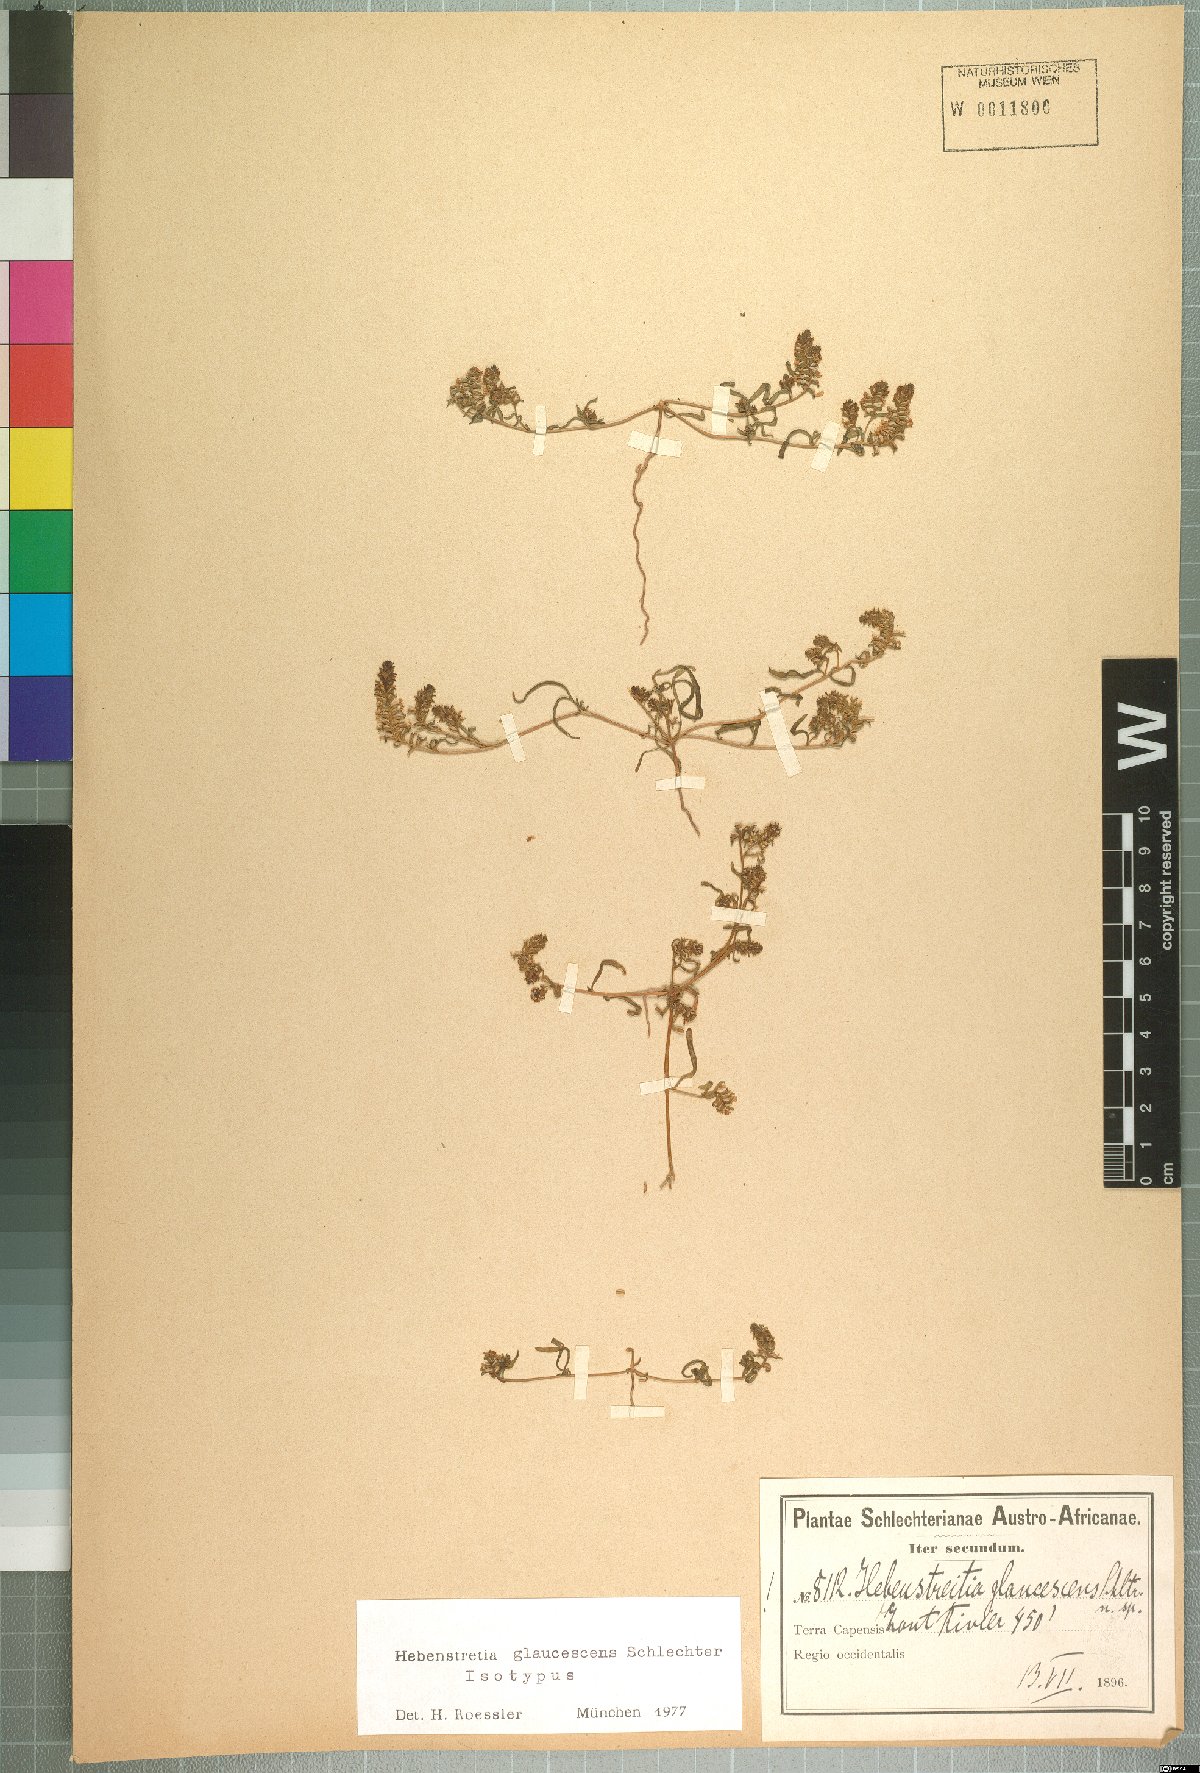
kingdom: Plantae
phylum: Tracheophyta
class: Magnoliopsida
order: Lamiales
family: Scrophulariaceae
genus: Hebenstretia
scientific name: Hebenstretia glaucescens
